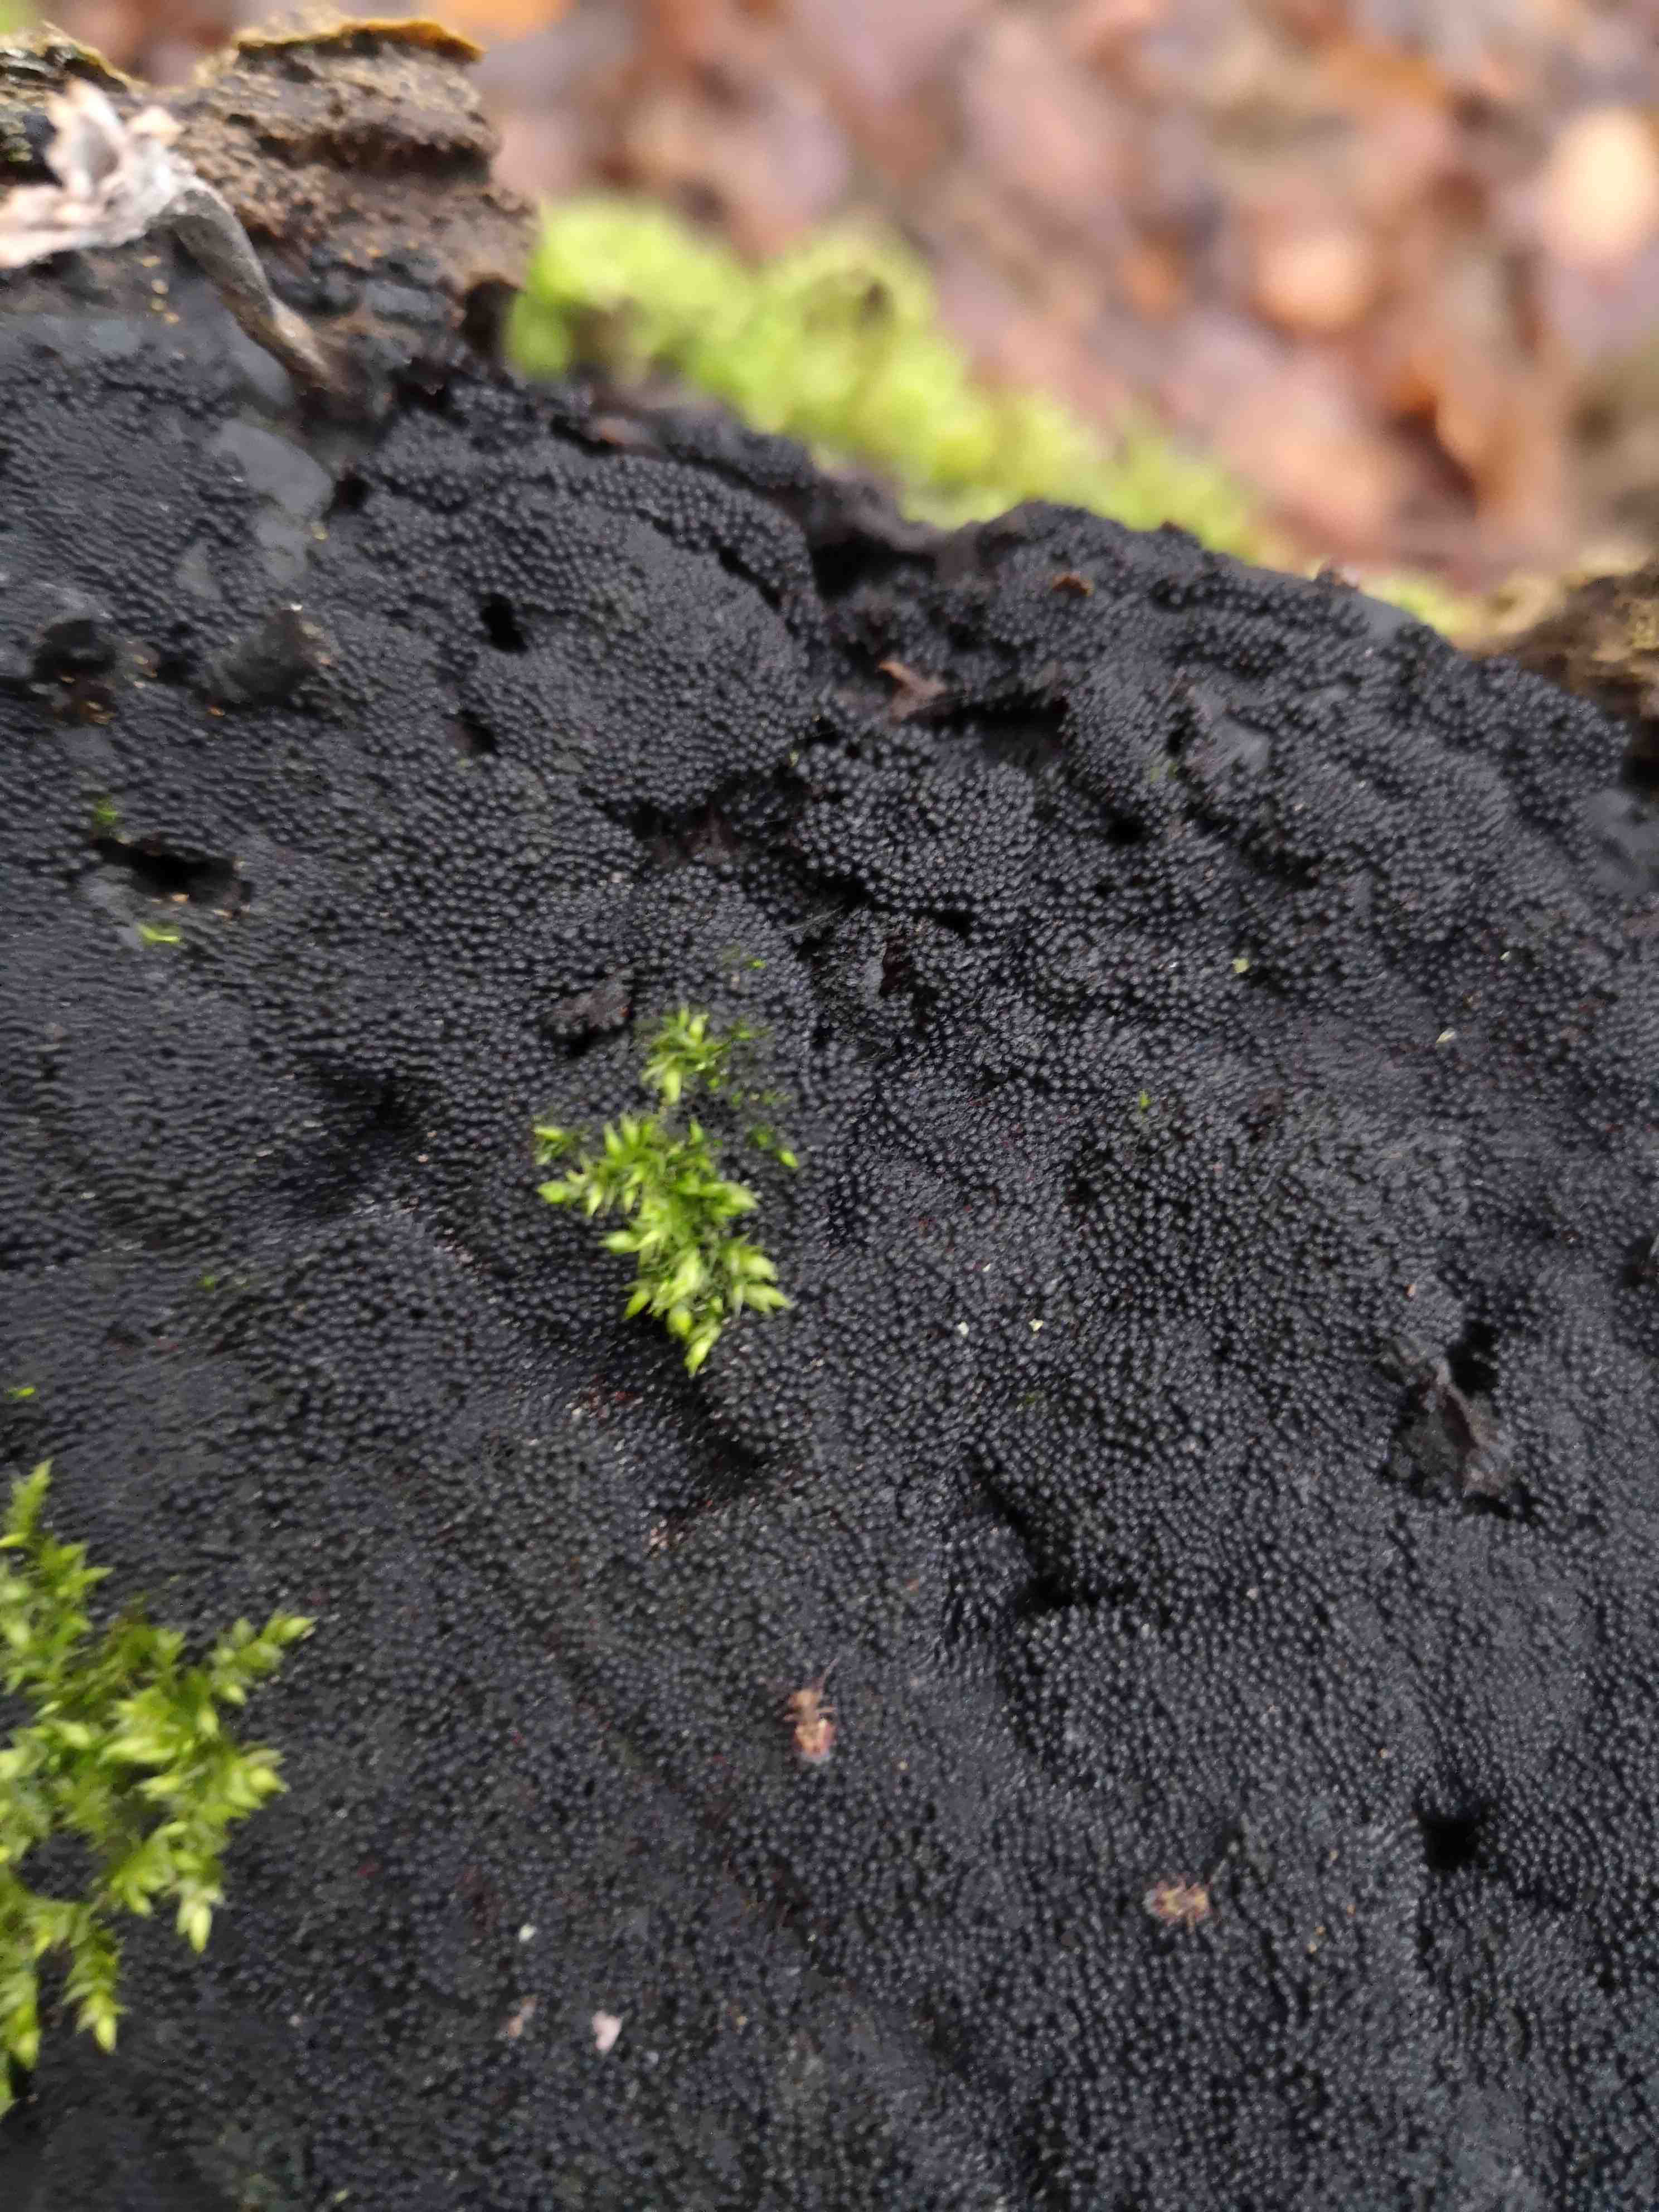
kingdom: Fungi
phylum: Ascomycota
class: Sordariomycetes
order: Xylariales
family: Diatrypaceae
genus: Eutypa
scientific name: Eutypa spinosa
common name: grov kulskorpe
